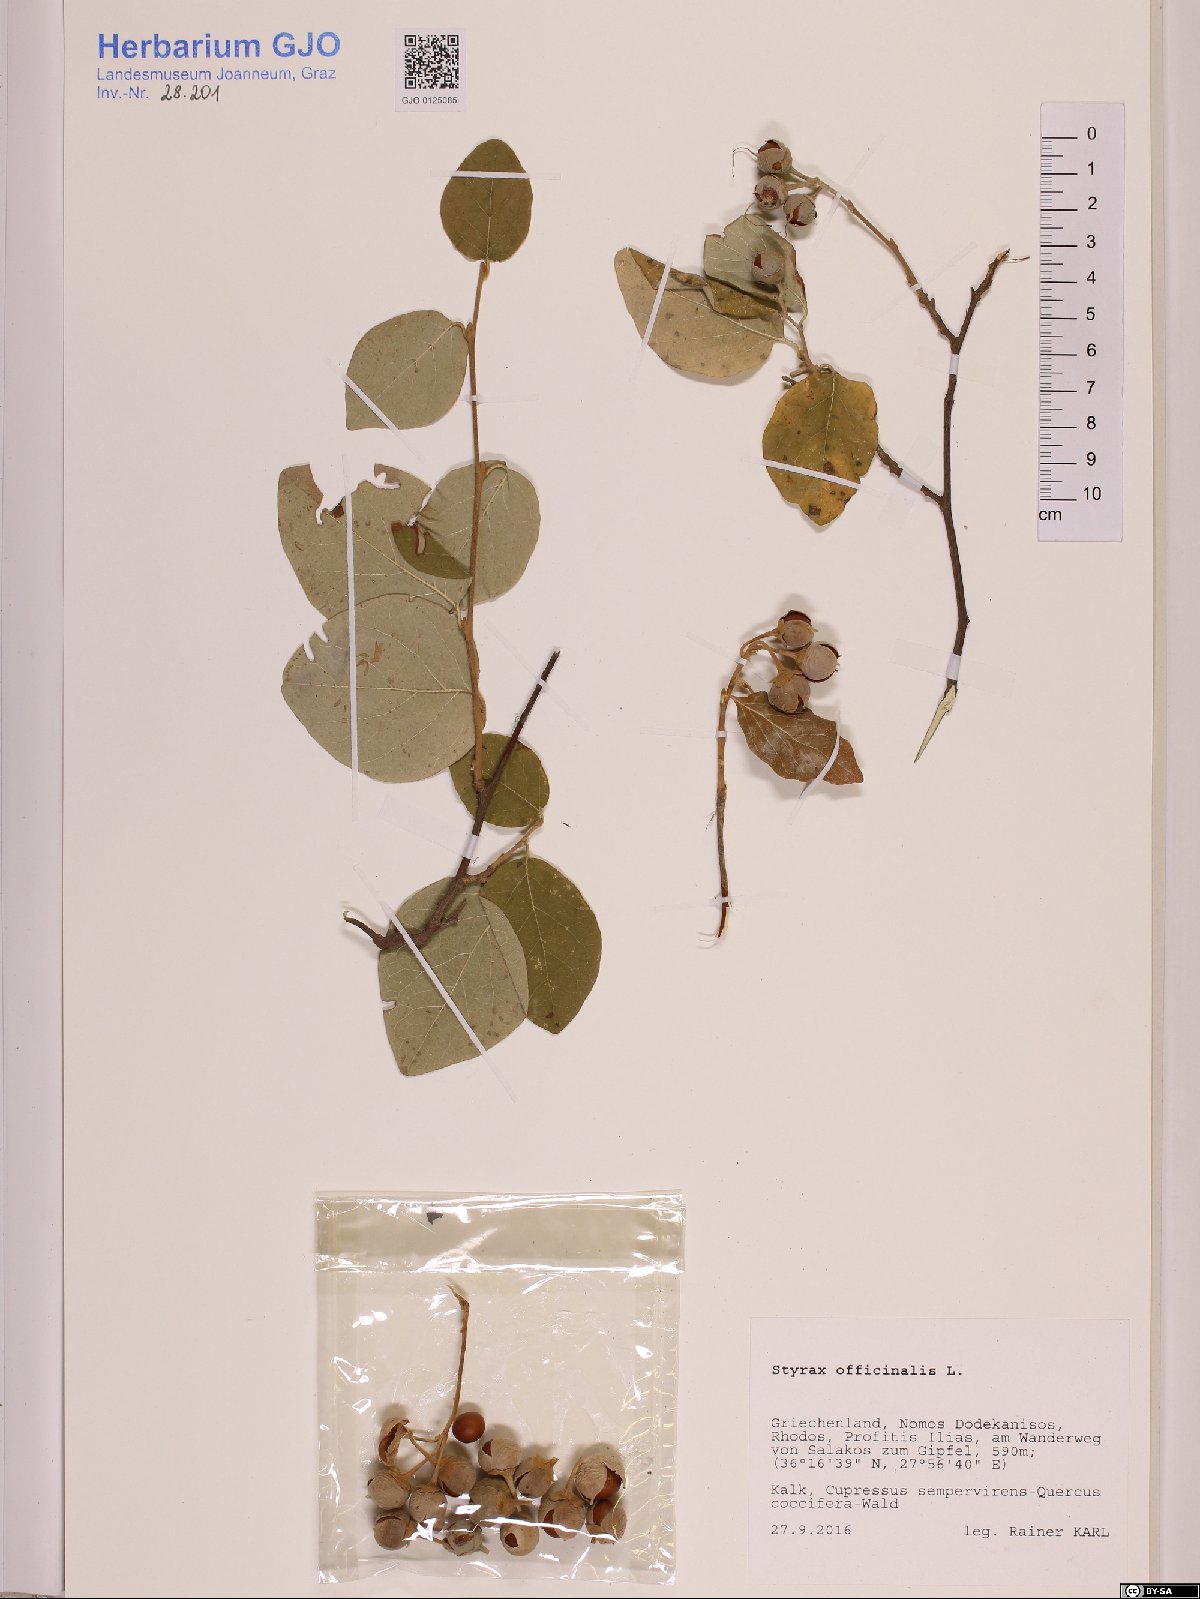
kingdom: Plantae
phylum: Tracheophyta
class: Magnoliopsida
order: Ericales
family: Styracaceae
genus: Styrax
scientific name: Styrax officinalis
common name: Storax
